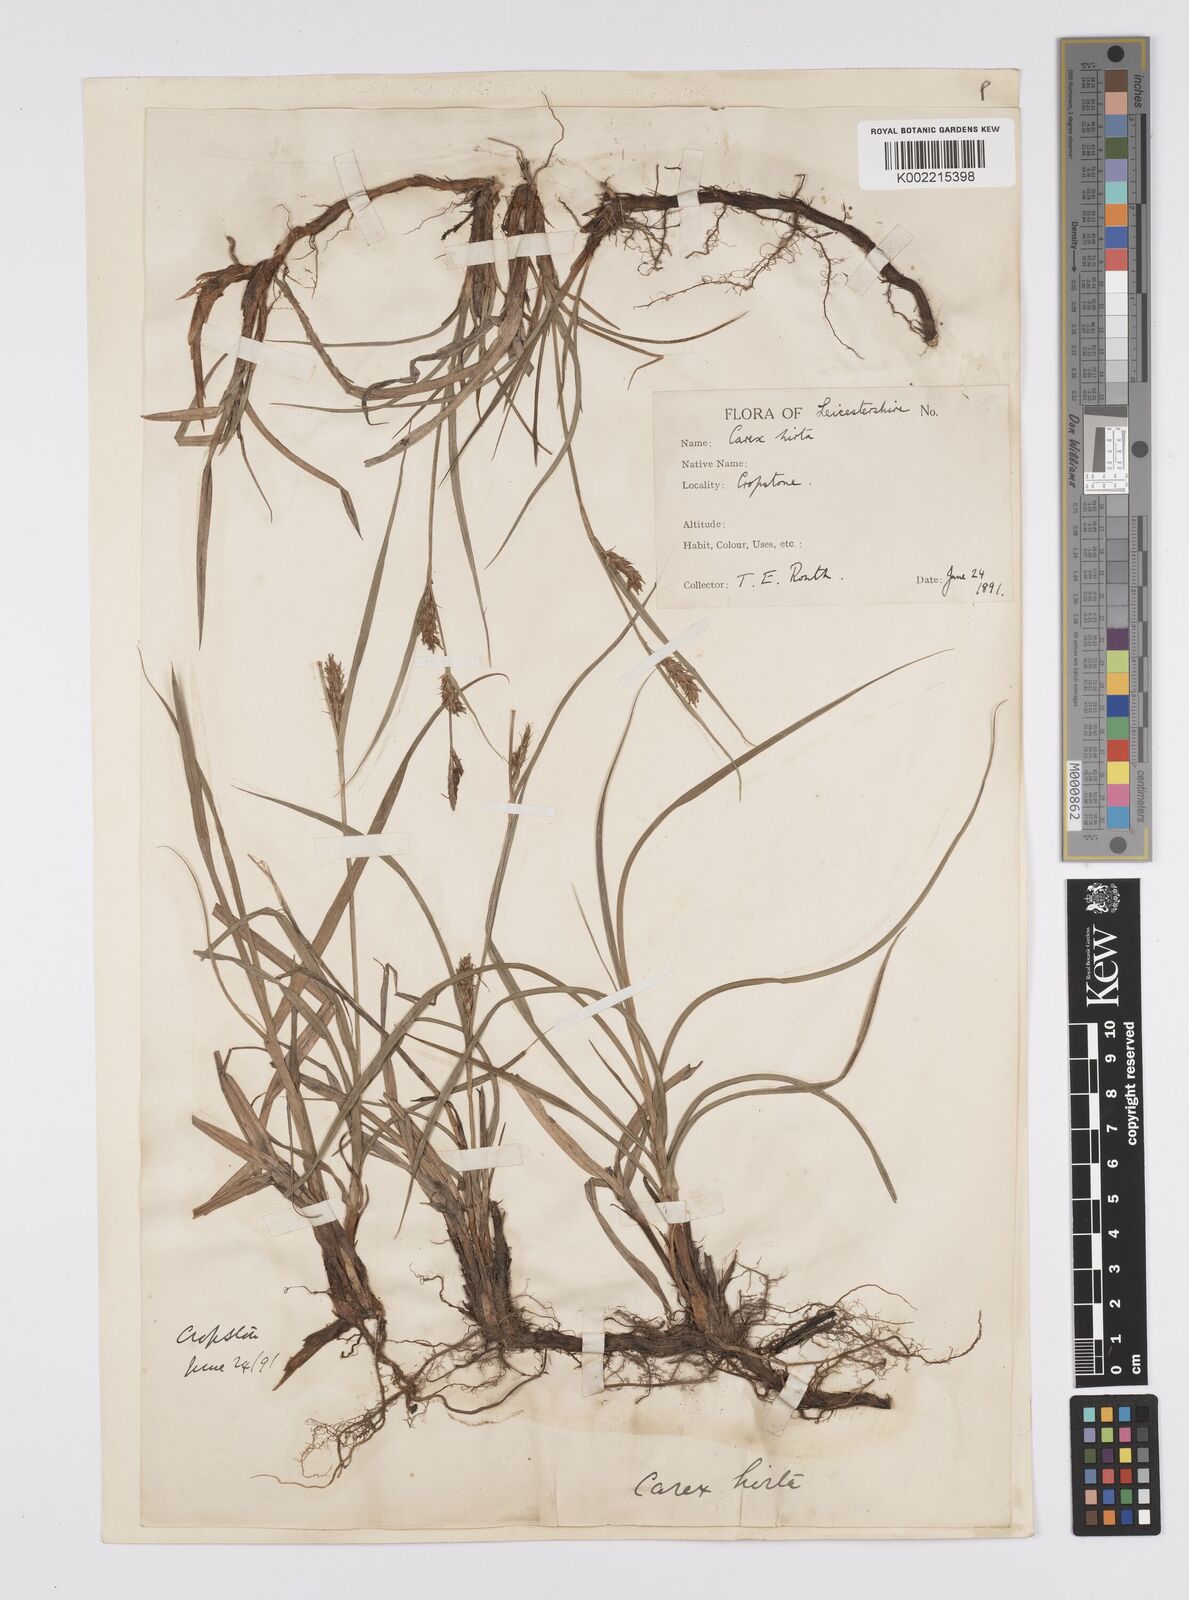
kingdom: Plantae
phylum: Tracheophyta
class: Liliopsida
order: Poales
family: Cyperaceae
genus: Carex
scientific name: Carex hirta
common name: Hairy sedge
